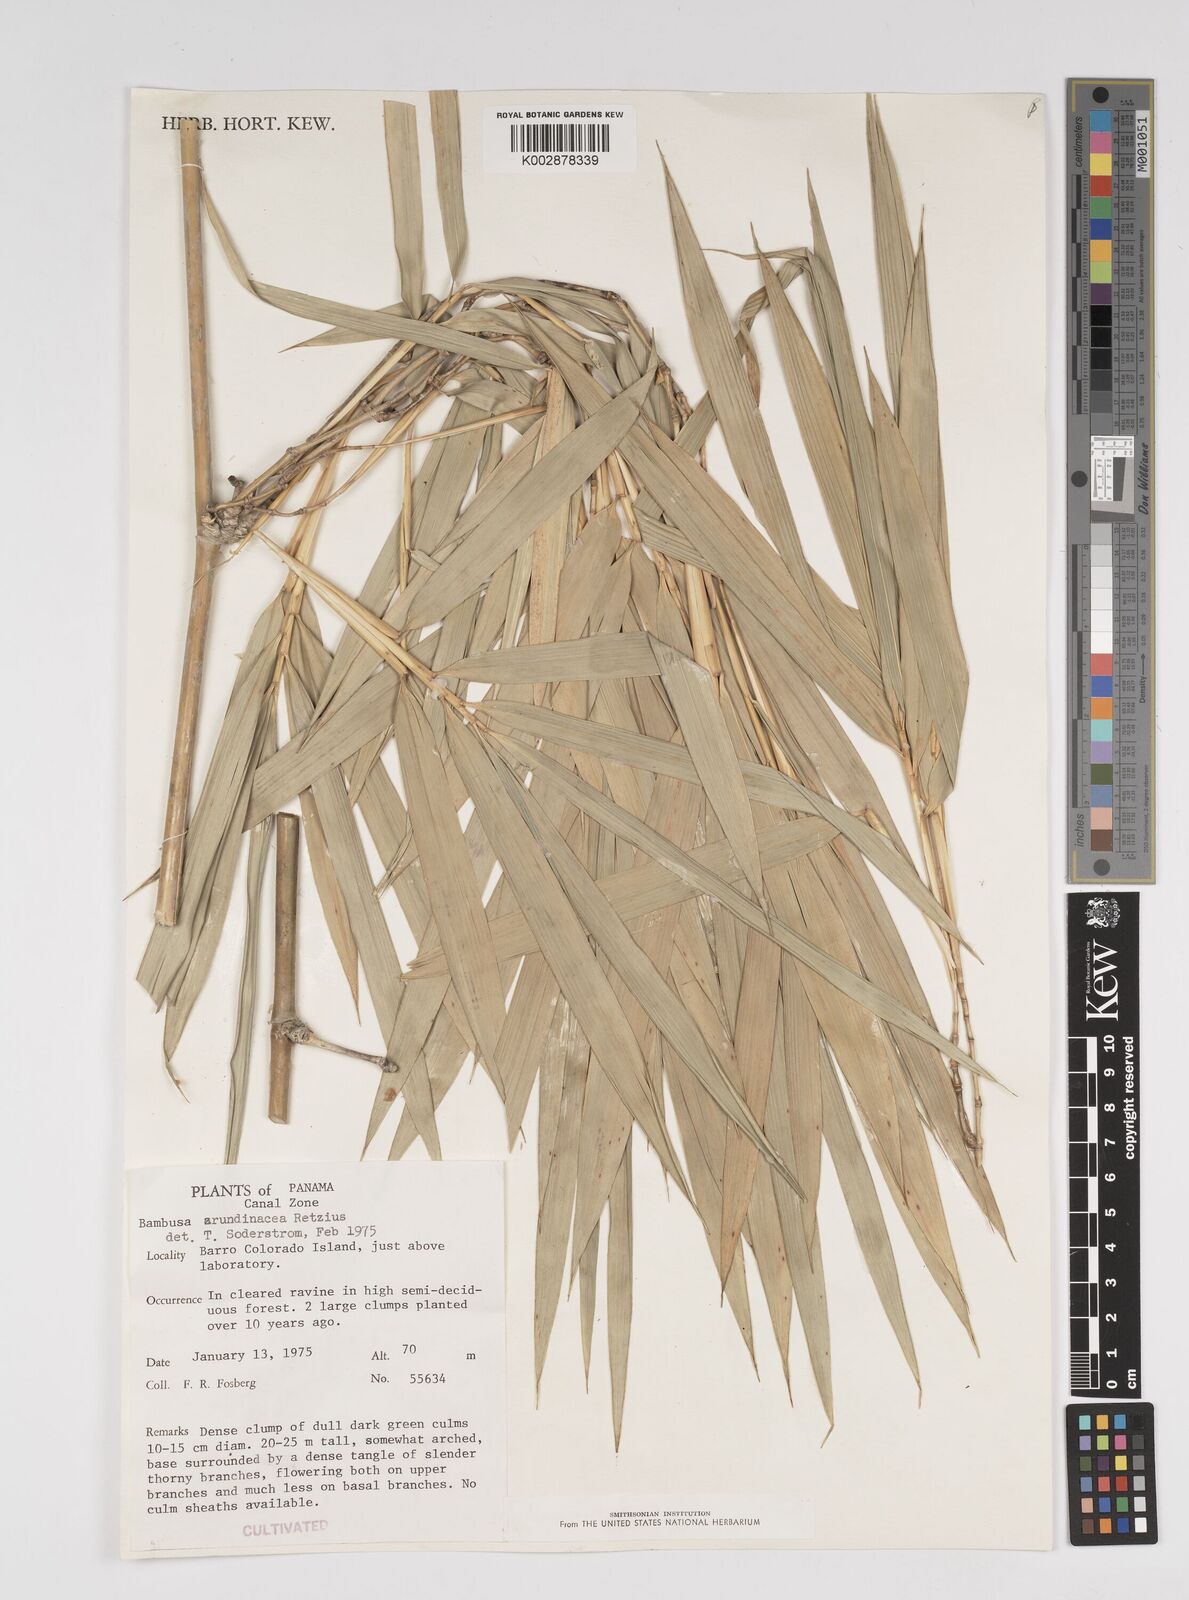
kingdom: Plantae
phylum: Tracheophyta
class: Liliopsida
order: Poales
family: Poaceae
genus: Bambusa
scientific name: Bambusa bambos
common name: Indian thorny bamboo
